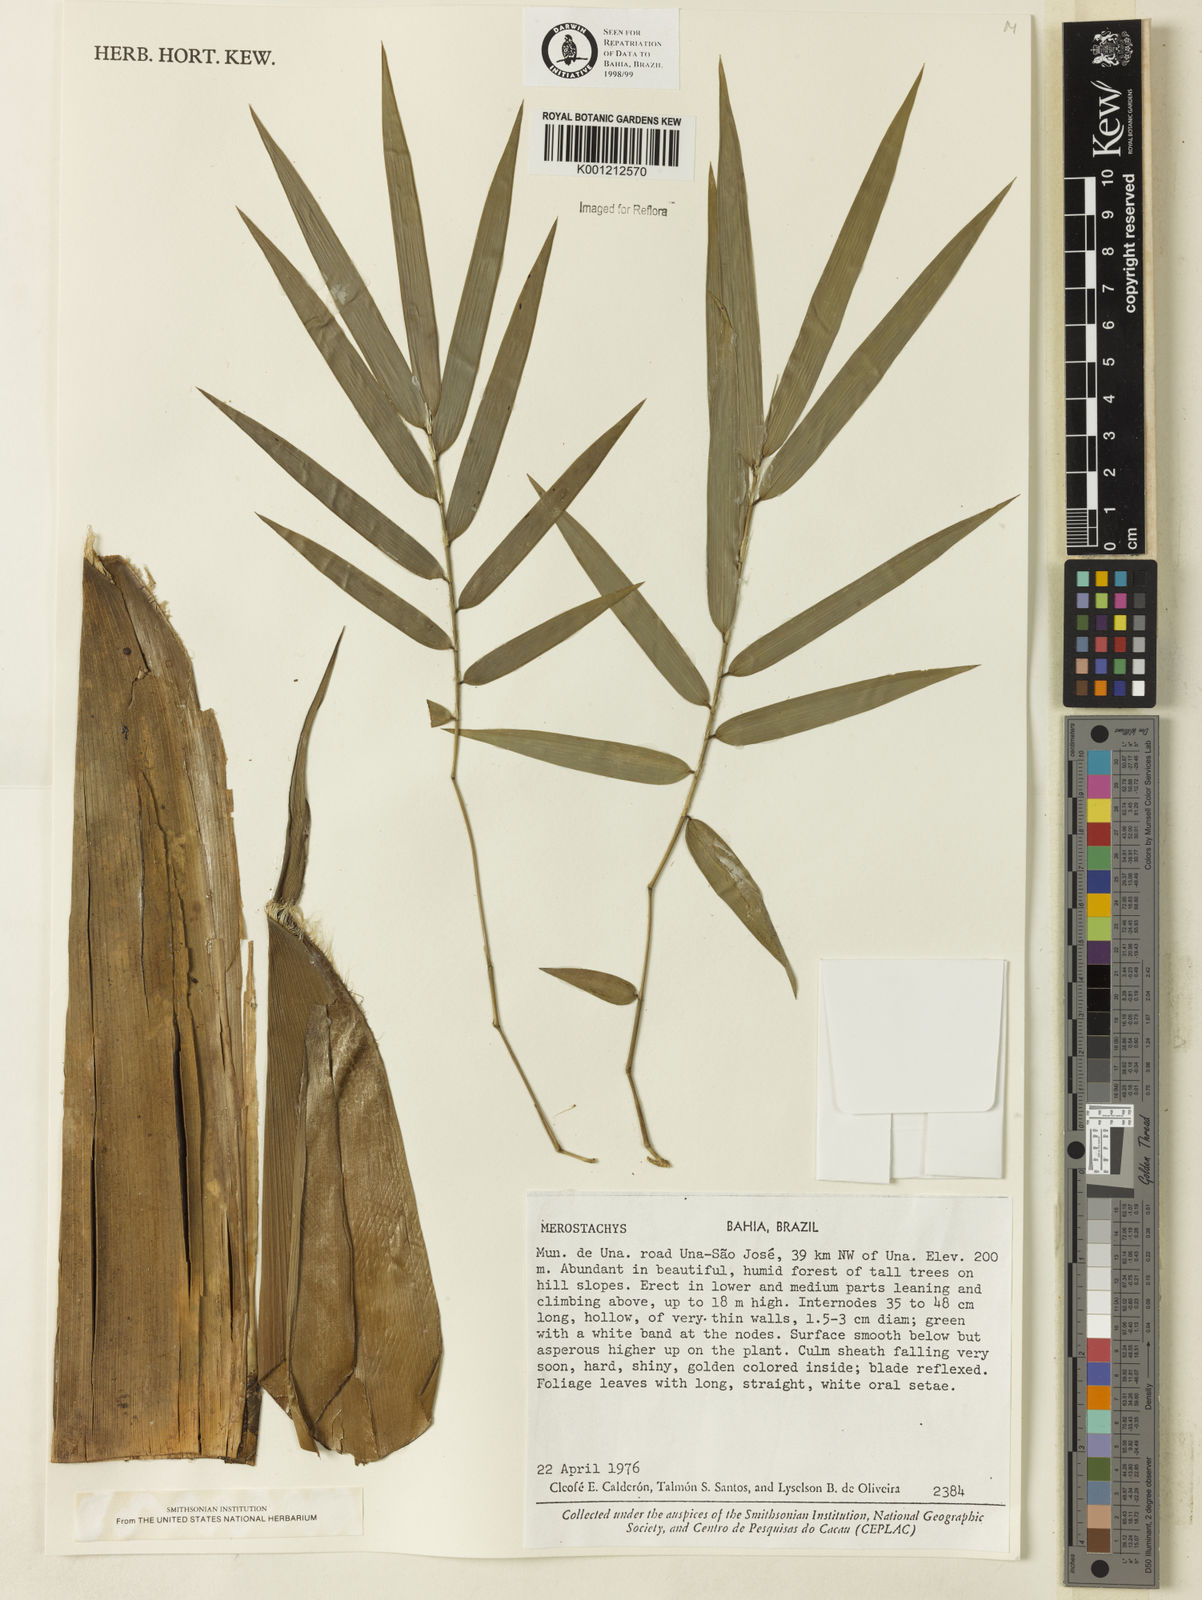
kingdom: Plantae
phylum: Tracheophyta
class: Liliopsida
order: Poales
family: Poaceae
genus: Merostachys
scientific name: Merostachys
